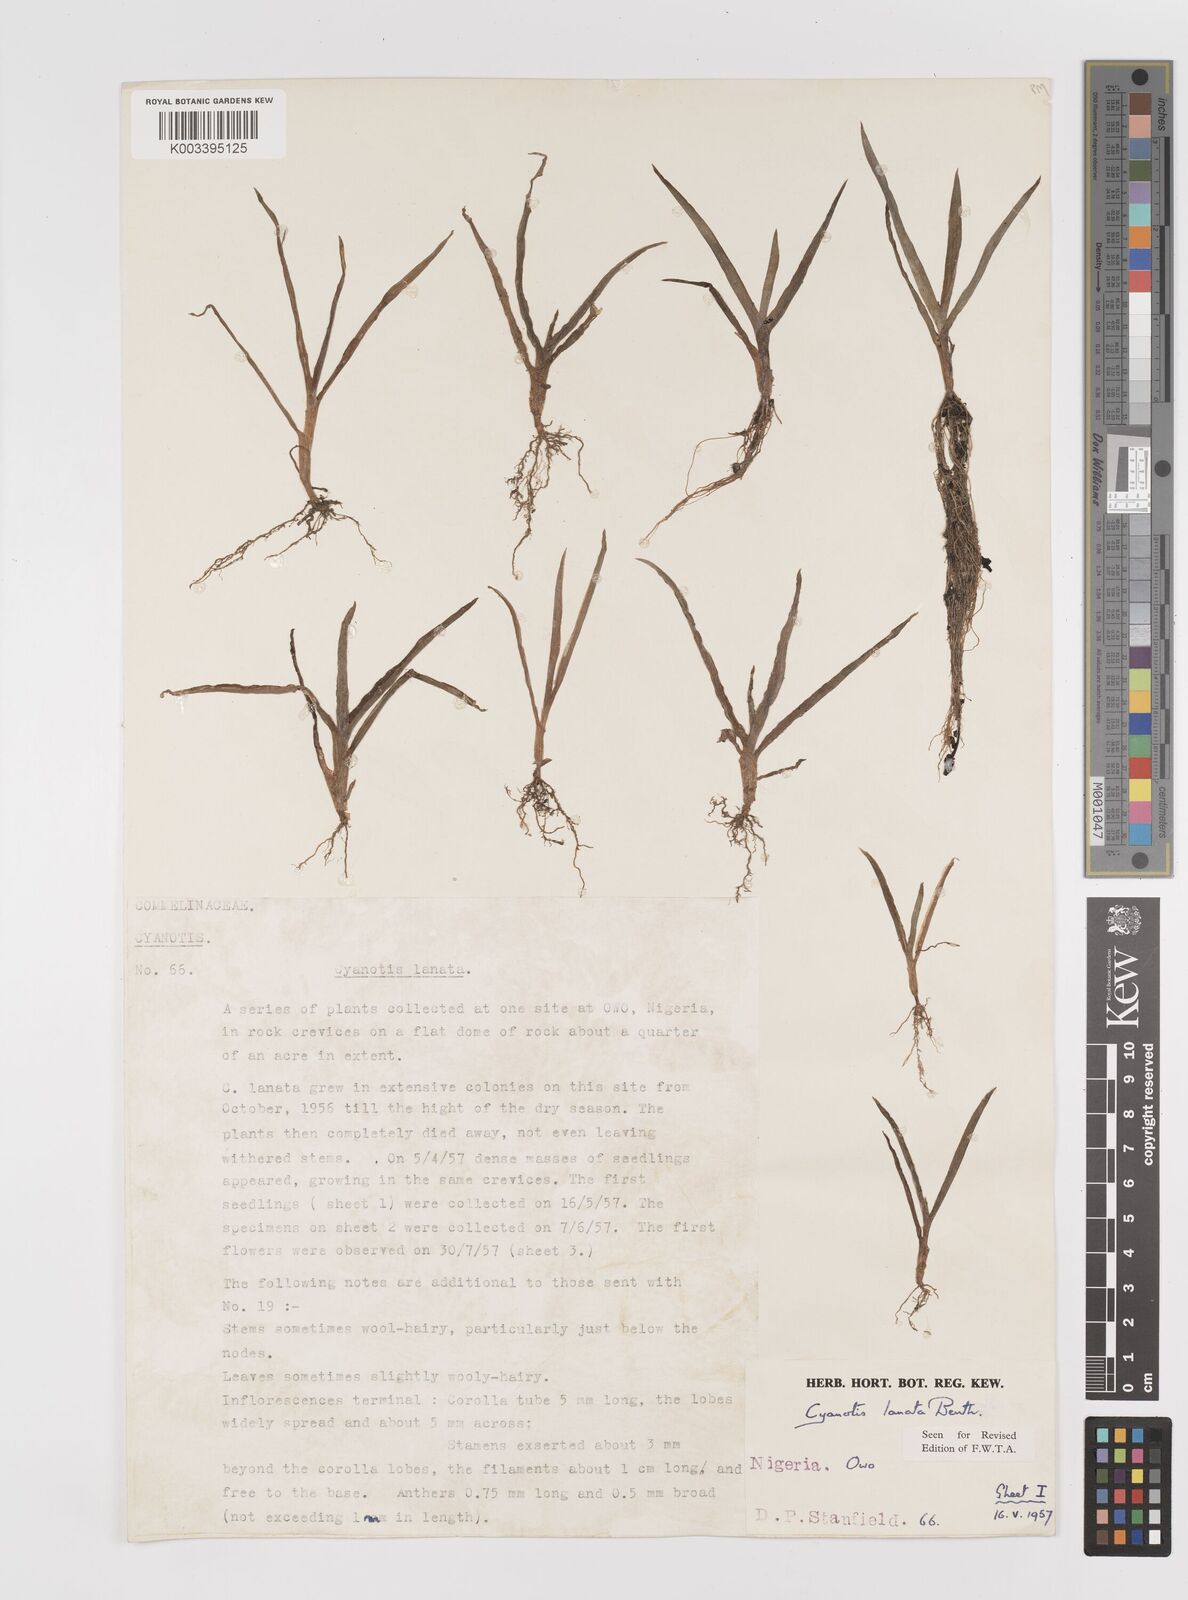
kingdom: Plantae
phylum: Tracheophyta
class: Liliopsida
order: Commelinales
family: Commelinaceae
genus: Cyanotis
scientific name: Cyanotis lanata
